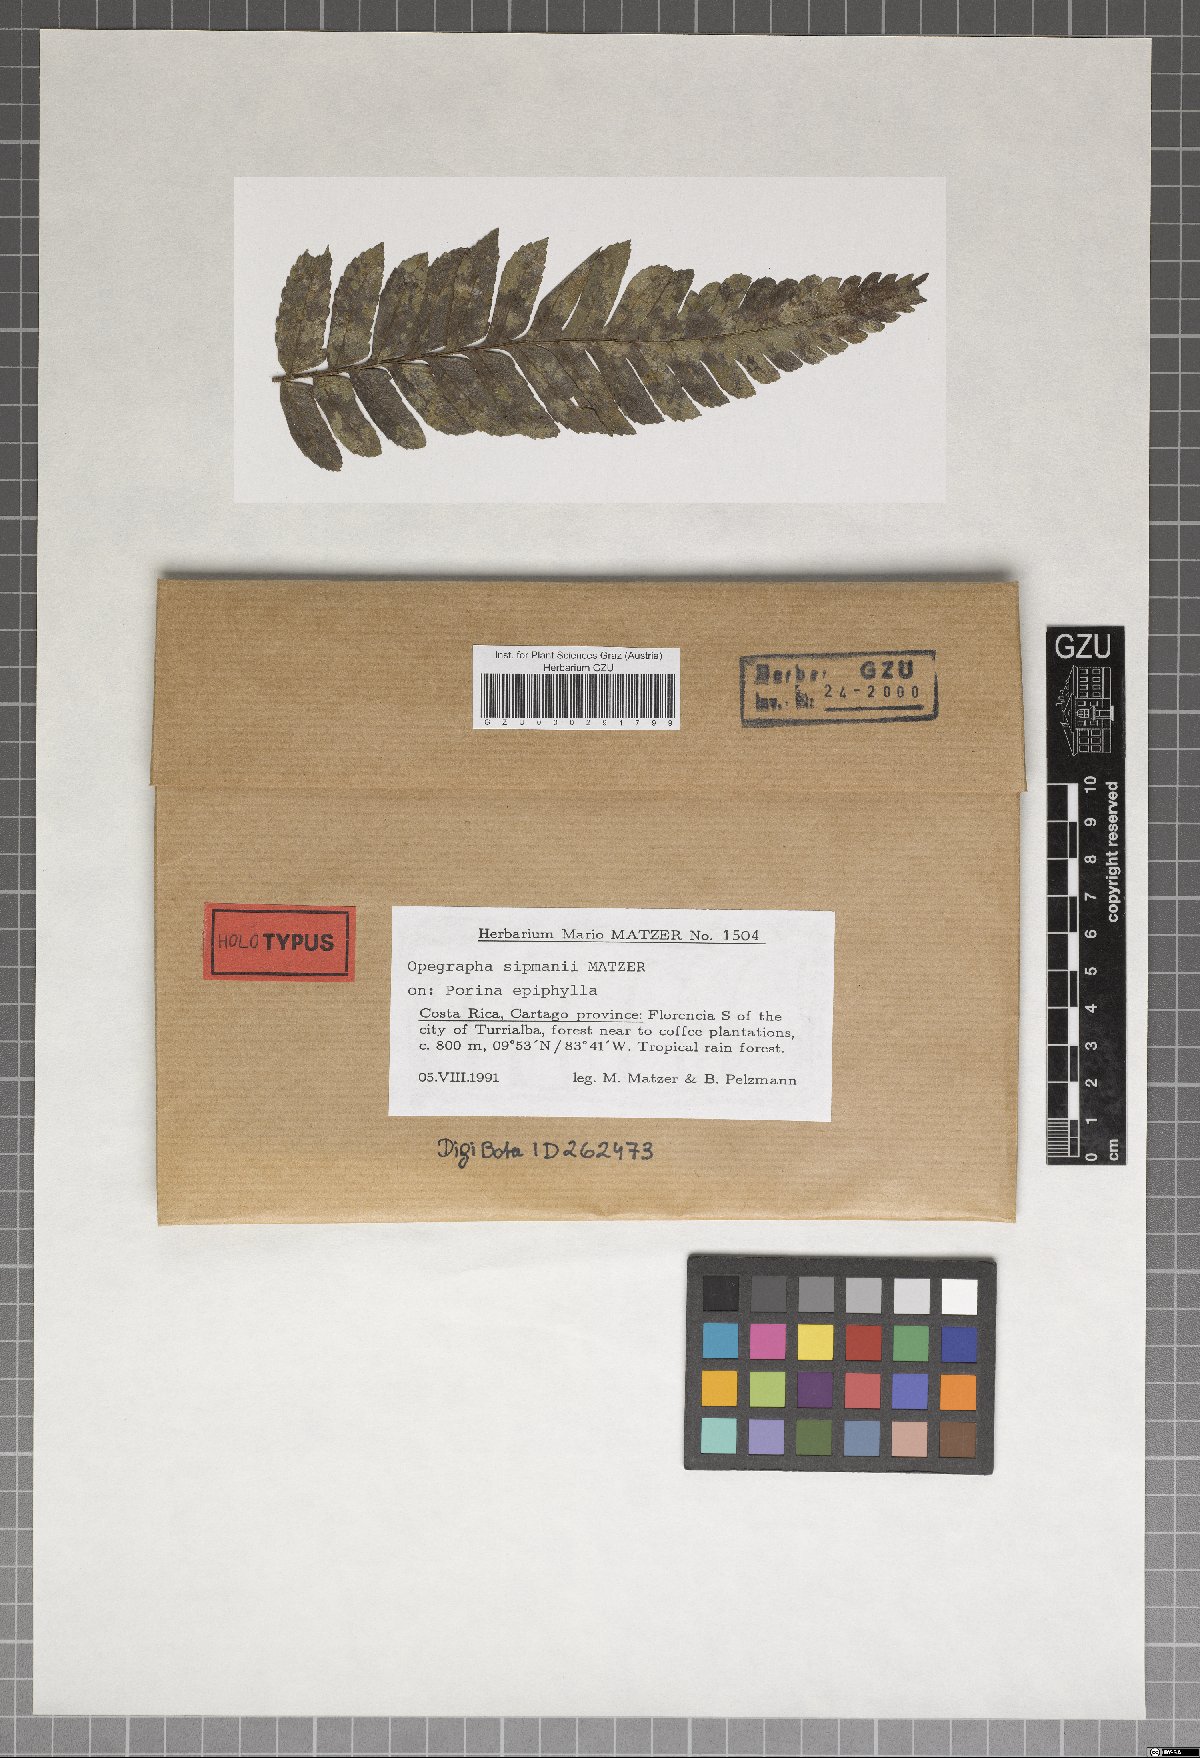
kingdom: Fungi
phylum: Ascomycota
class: Arthoniomycetes
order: Arthoniales
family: Opegraphaceae
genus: Opegrapha
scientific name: Opegrapha
